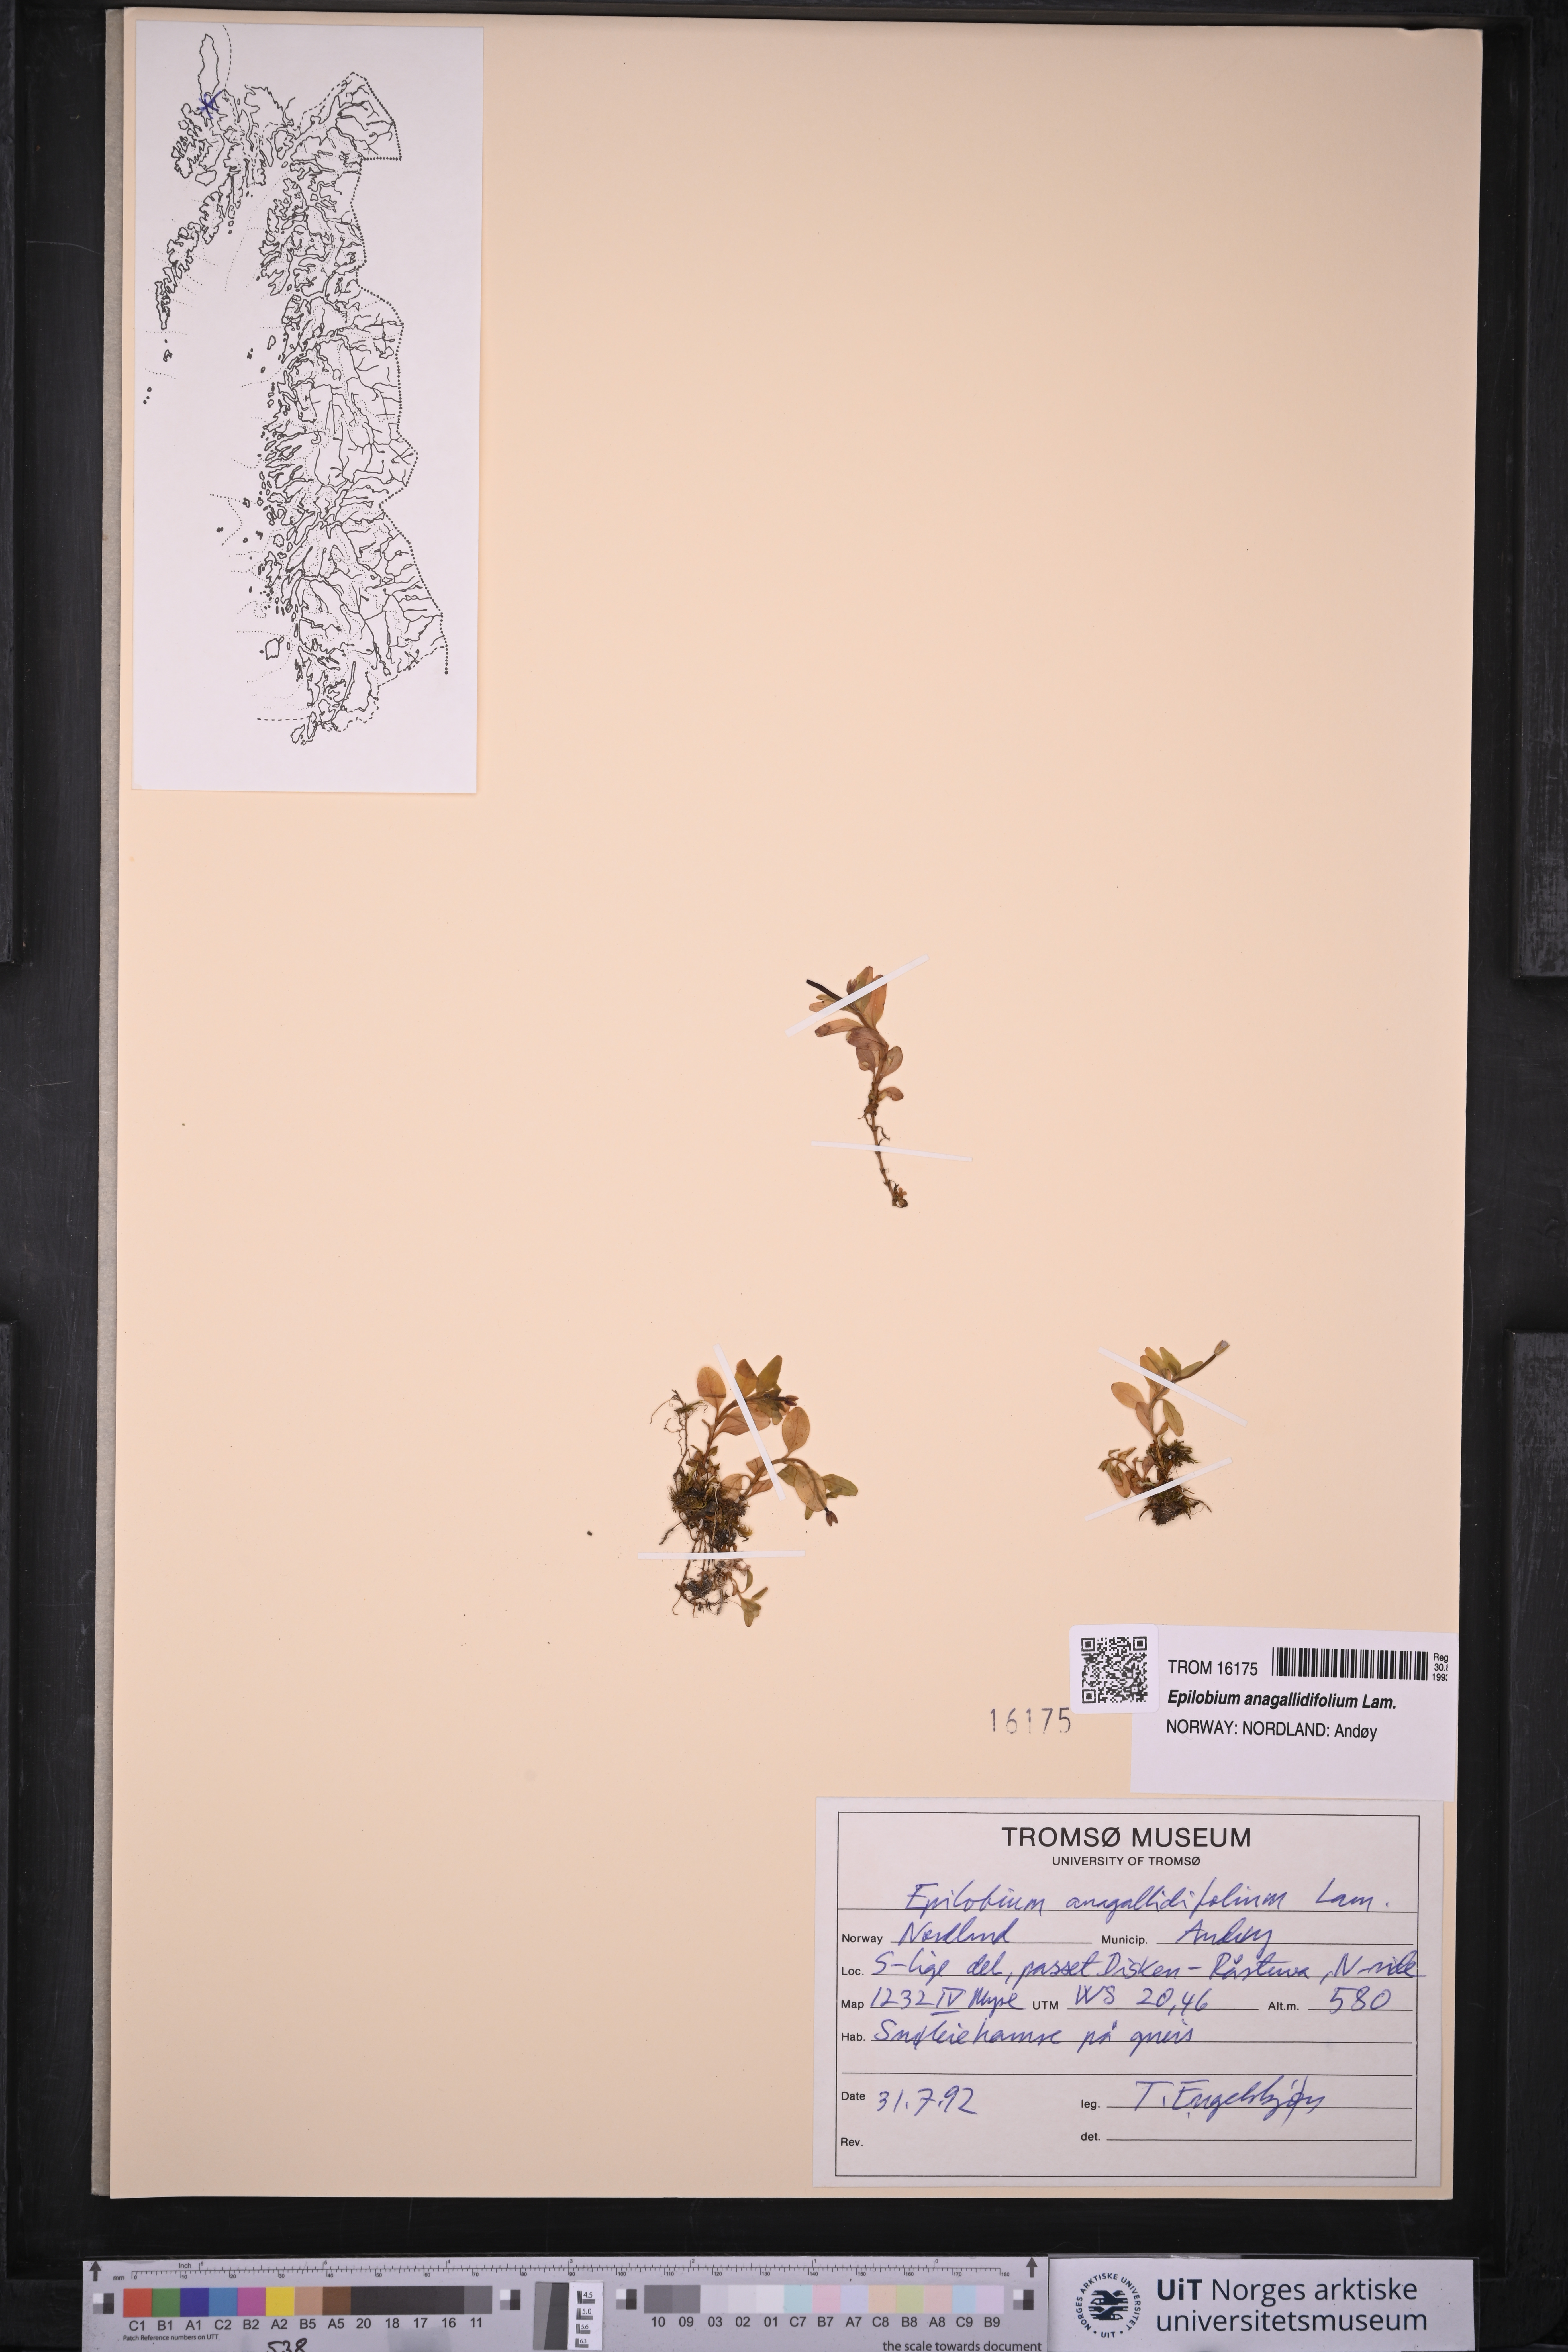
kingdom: Plantae
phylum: Tracheophyta
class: Magnoliopsida
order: Myrtales
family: Onagraceae
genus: Epilobium
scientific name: Epilobium anagallidifolium
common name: Alpine willowherb
